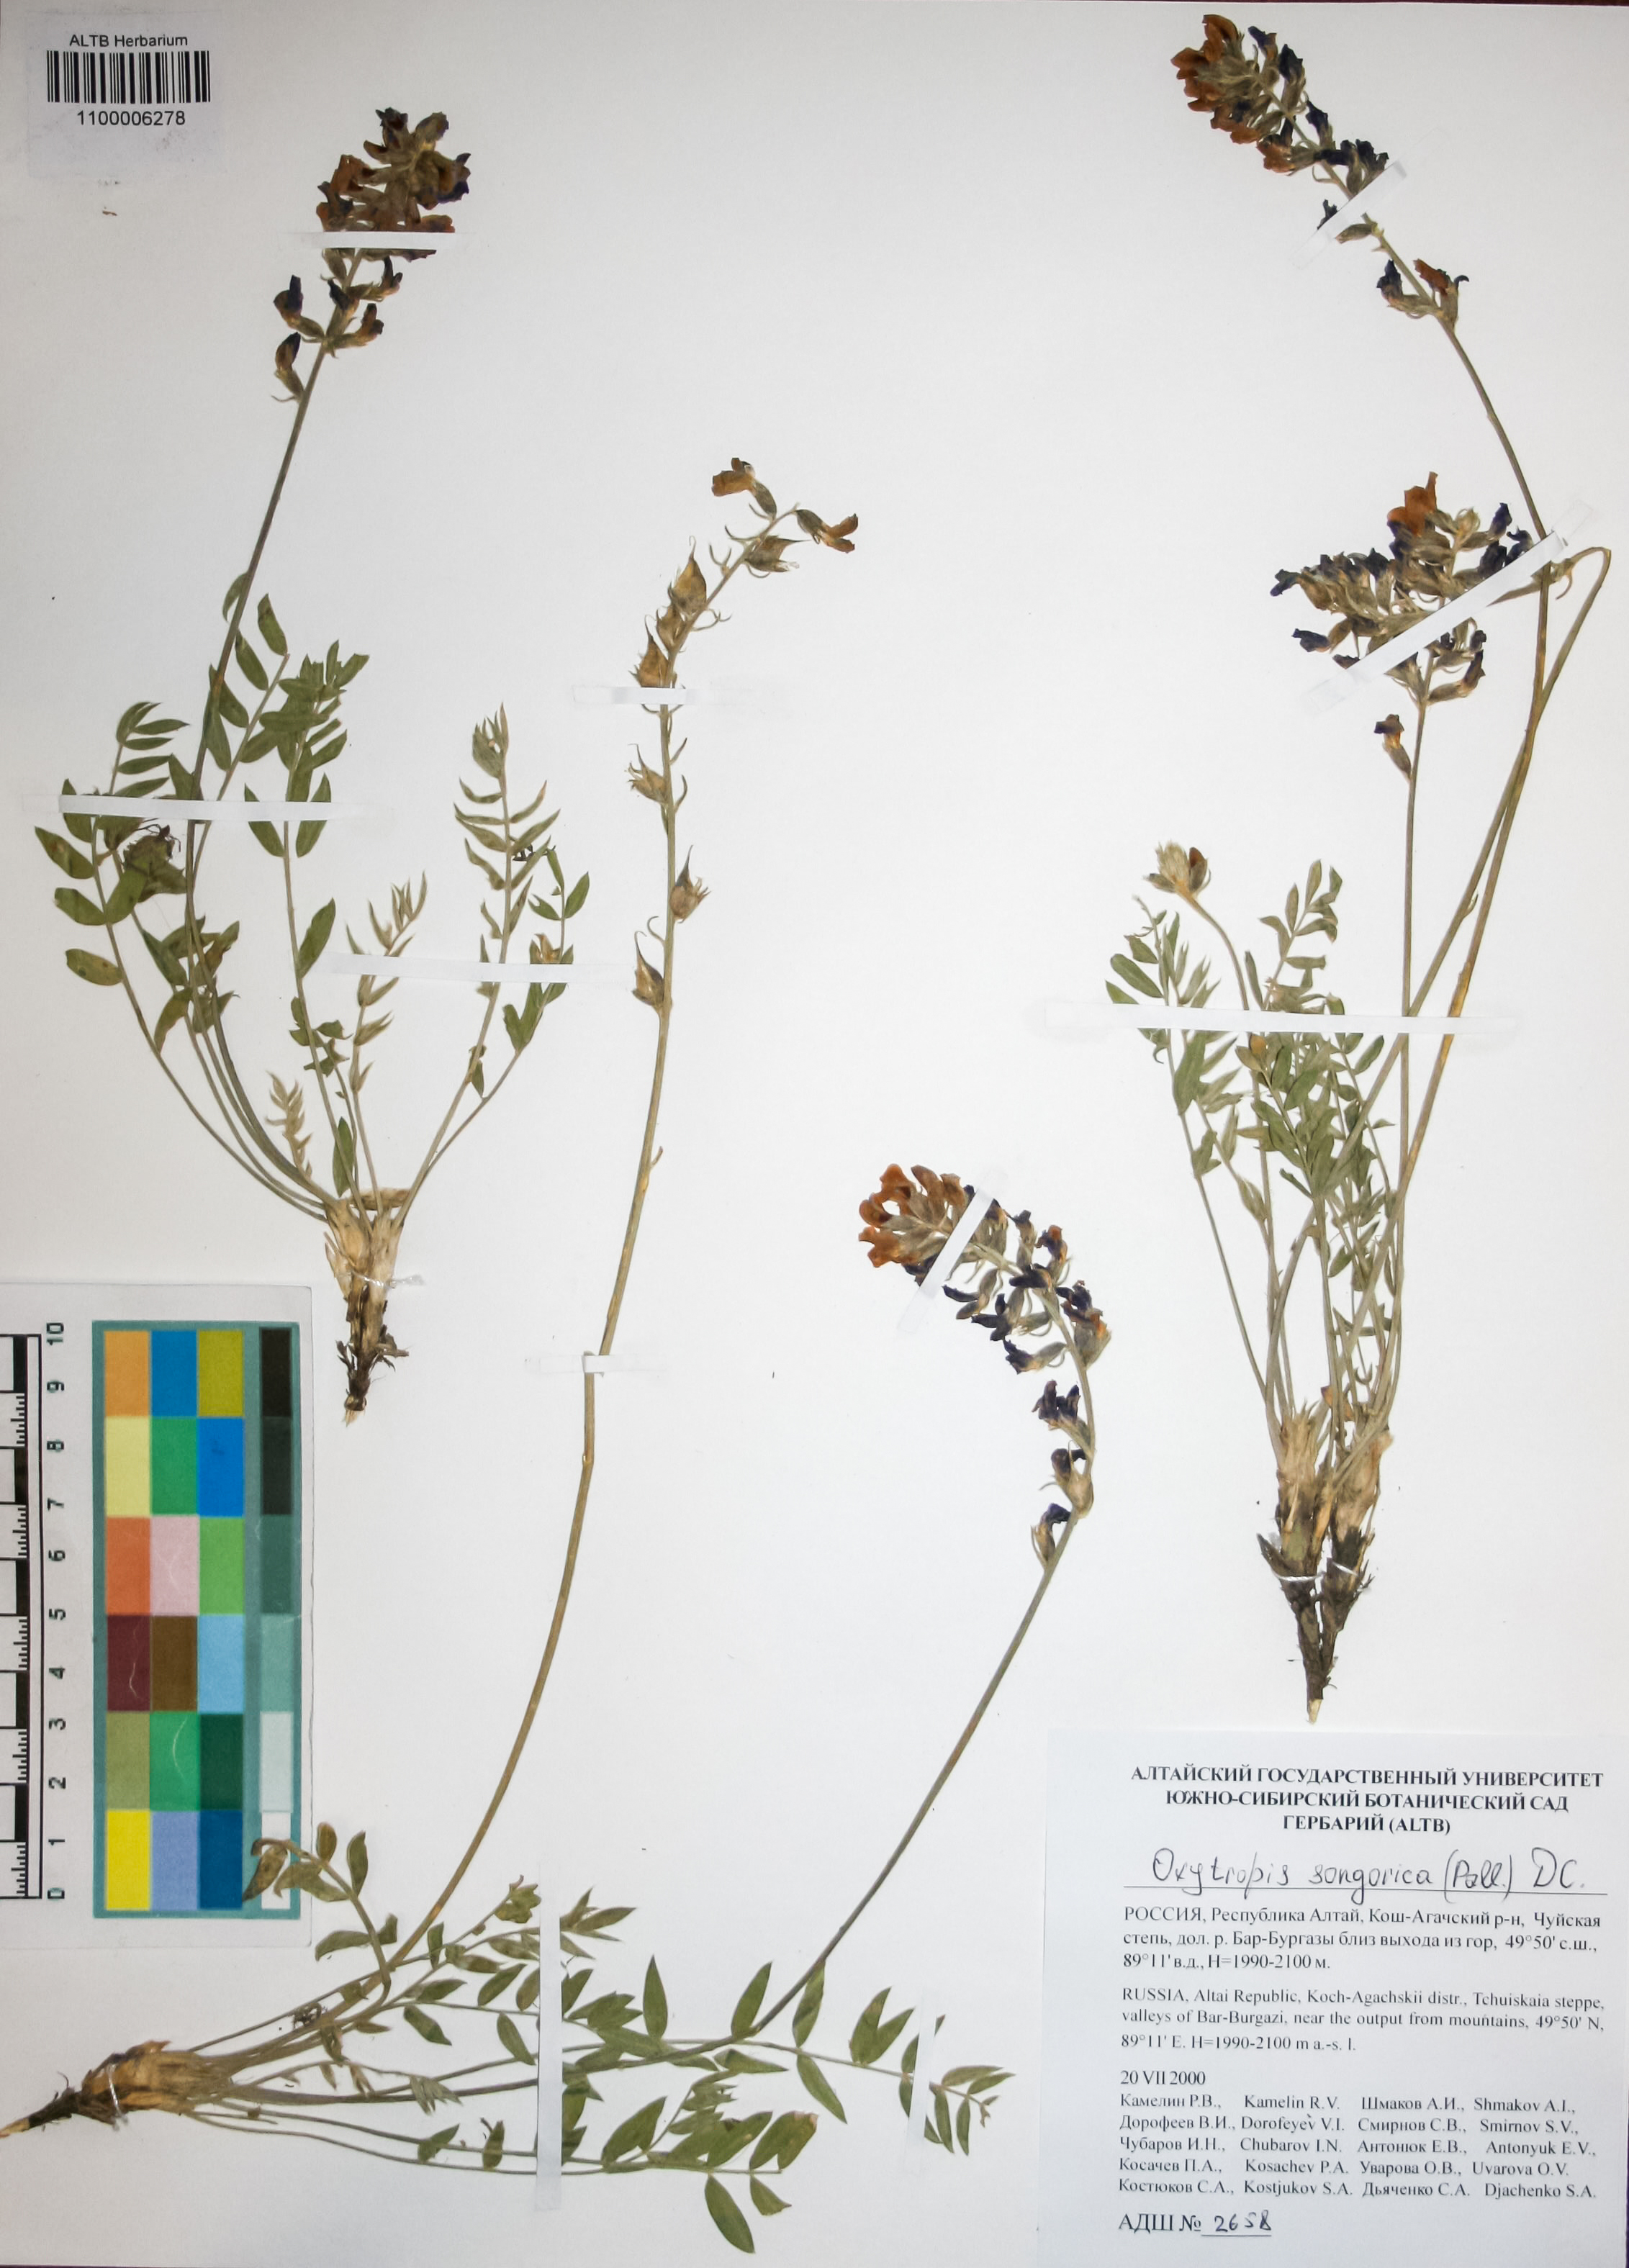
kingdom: Plantae
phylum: Tracheophyta
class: Magnoliopsida
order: Fabales
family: Fabaceae
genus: Oxytropis
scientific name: Oxytropis songorica
